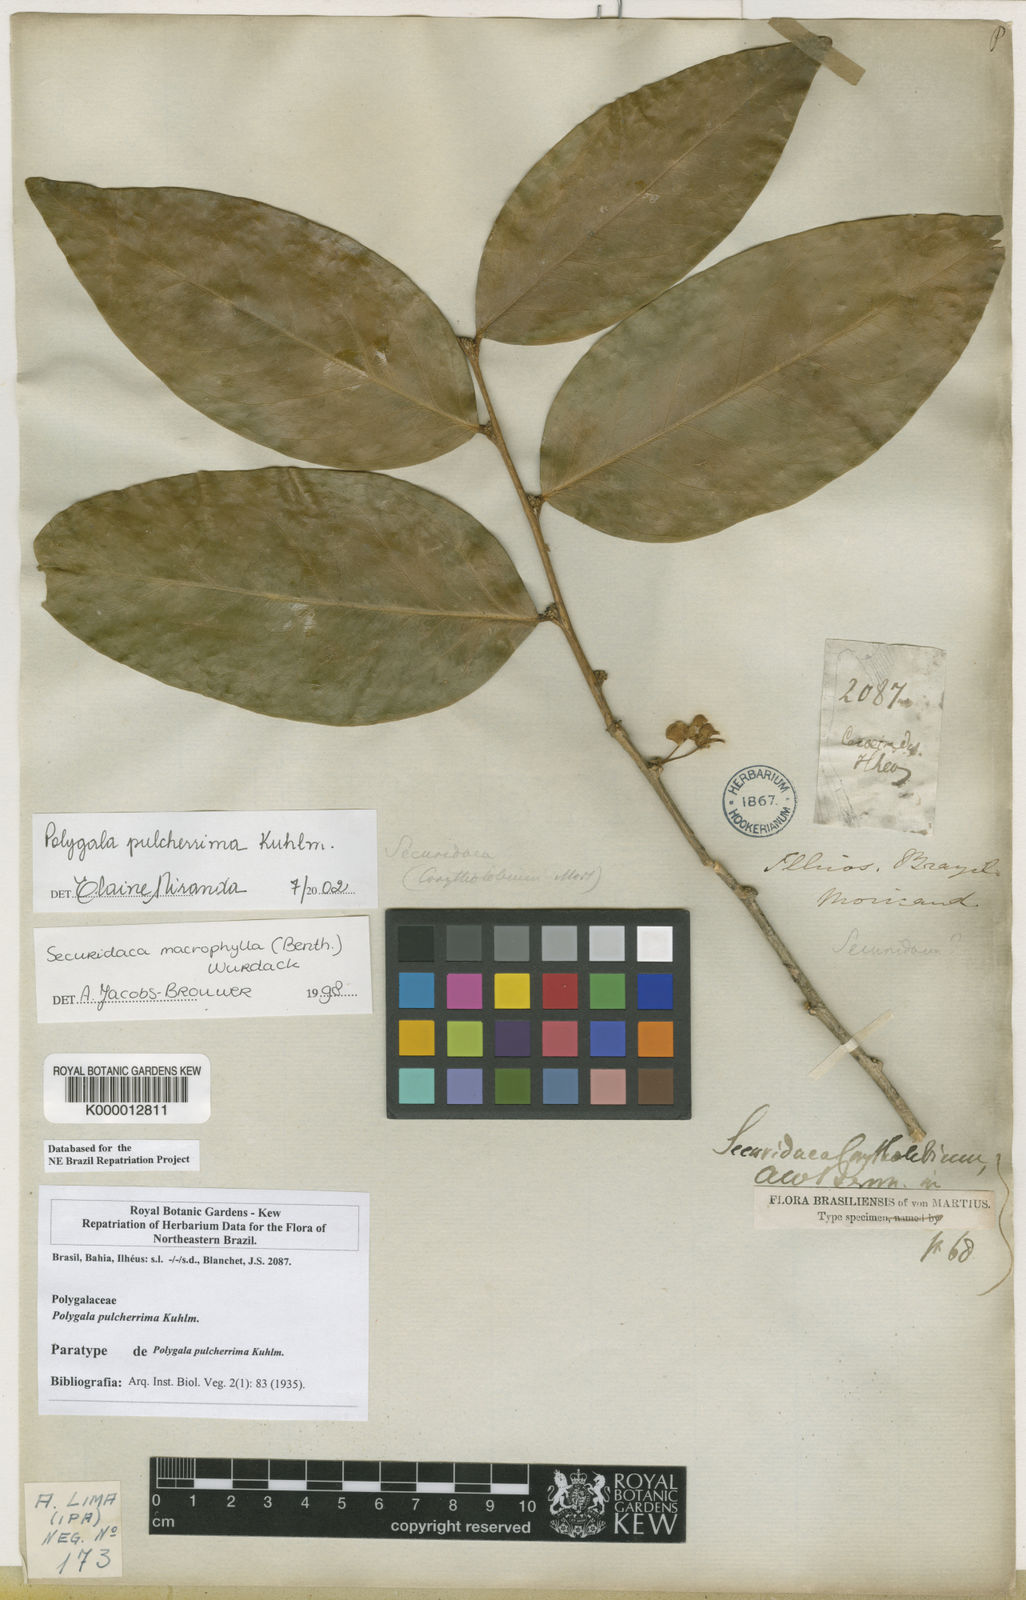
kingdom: Plantae
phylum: Tracheophyta
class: Magnoliopsida
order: Fabales
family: Polygalaceae
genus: Acanthocladus
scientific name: Acanthocladus pulcherrimus
